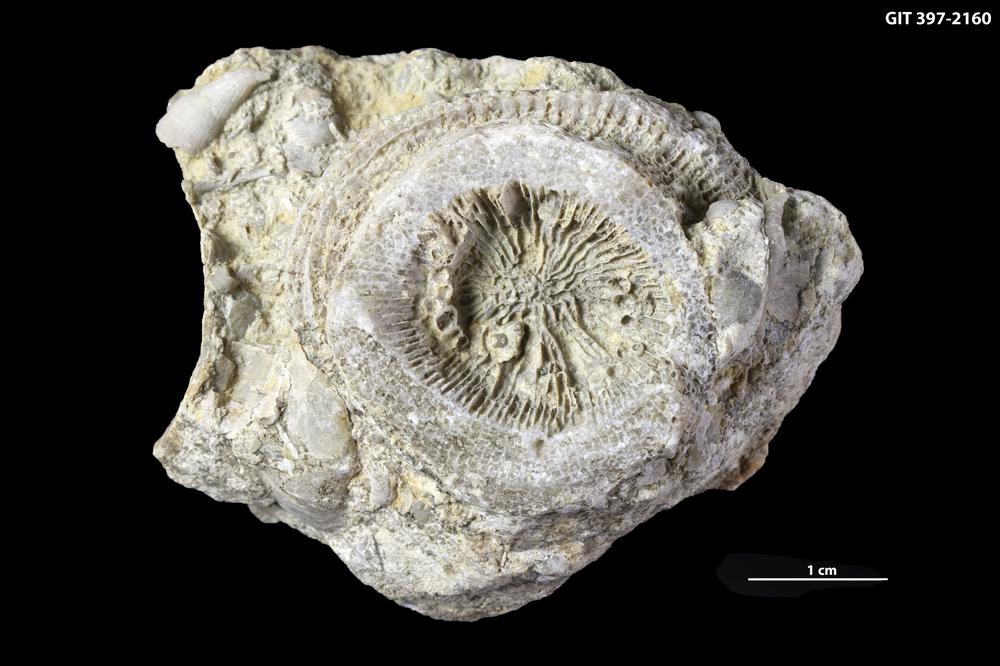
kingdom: Animalia
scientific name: Animalia
